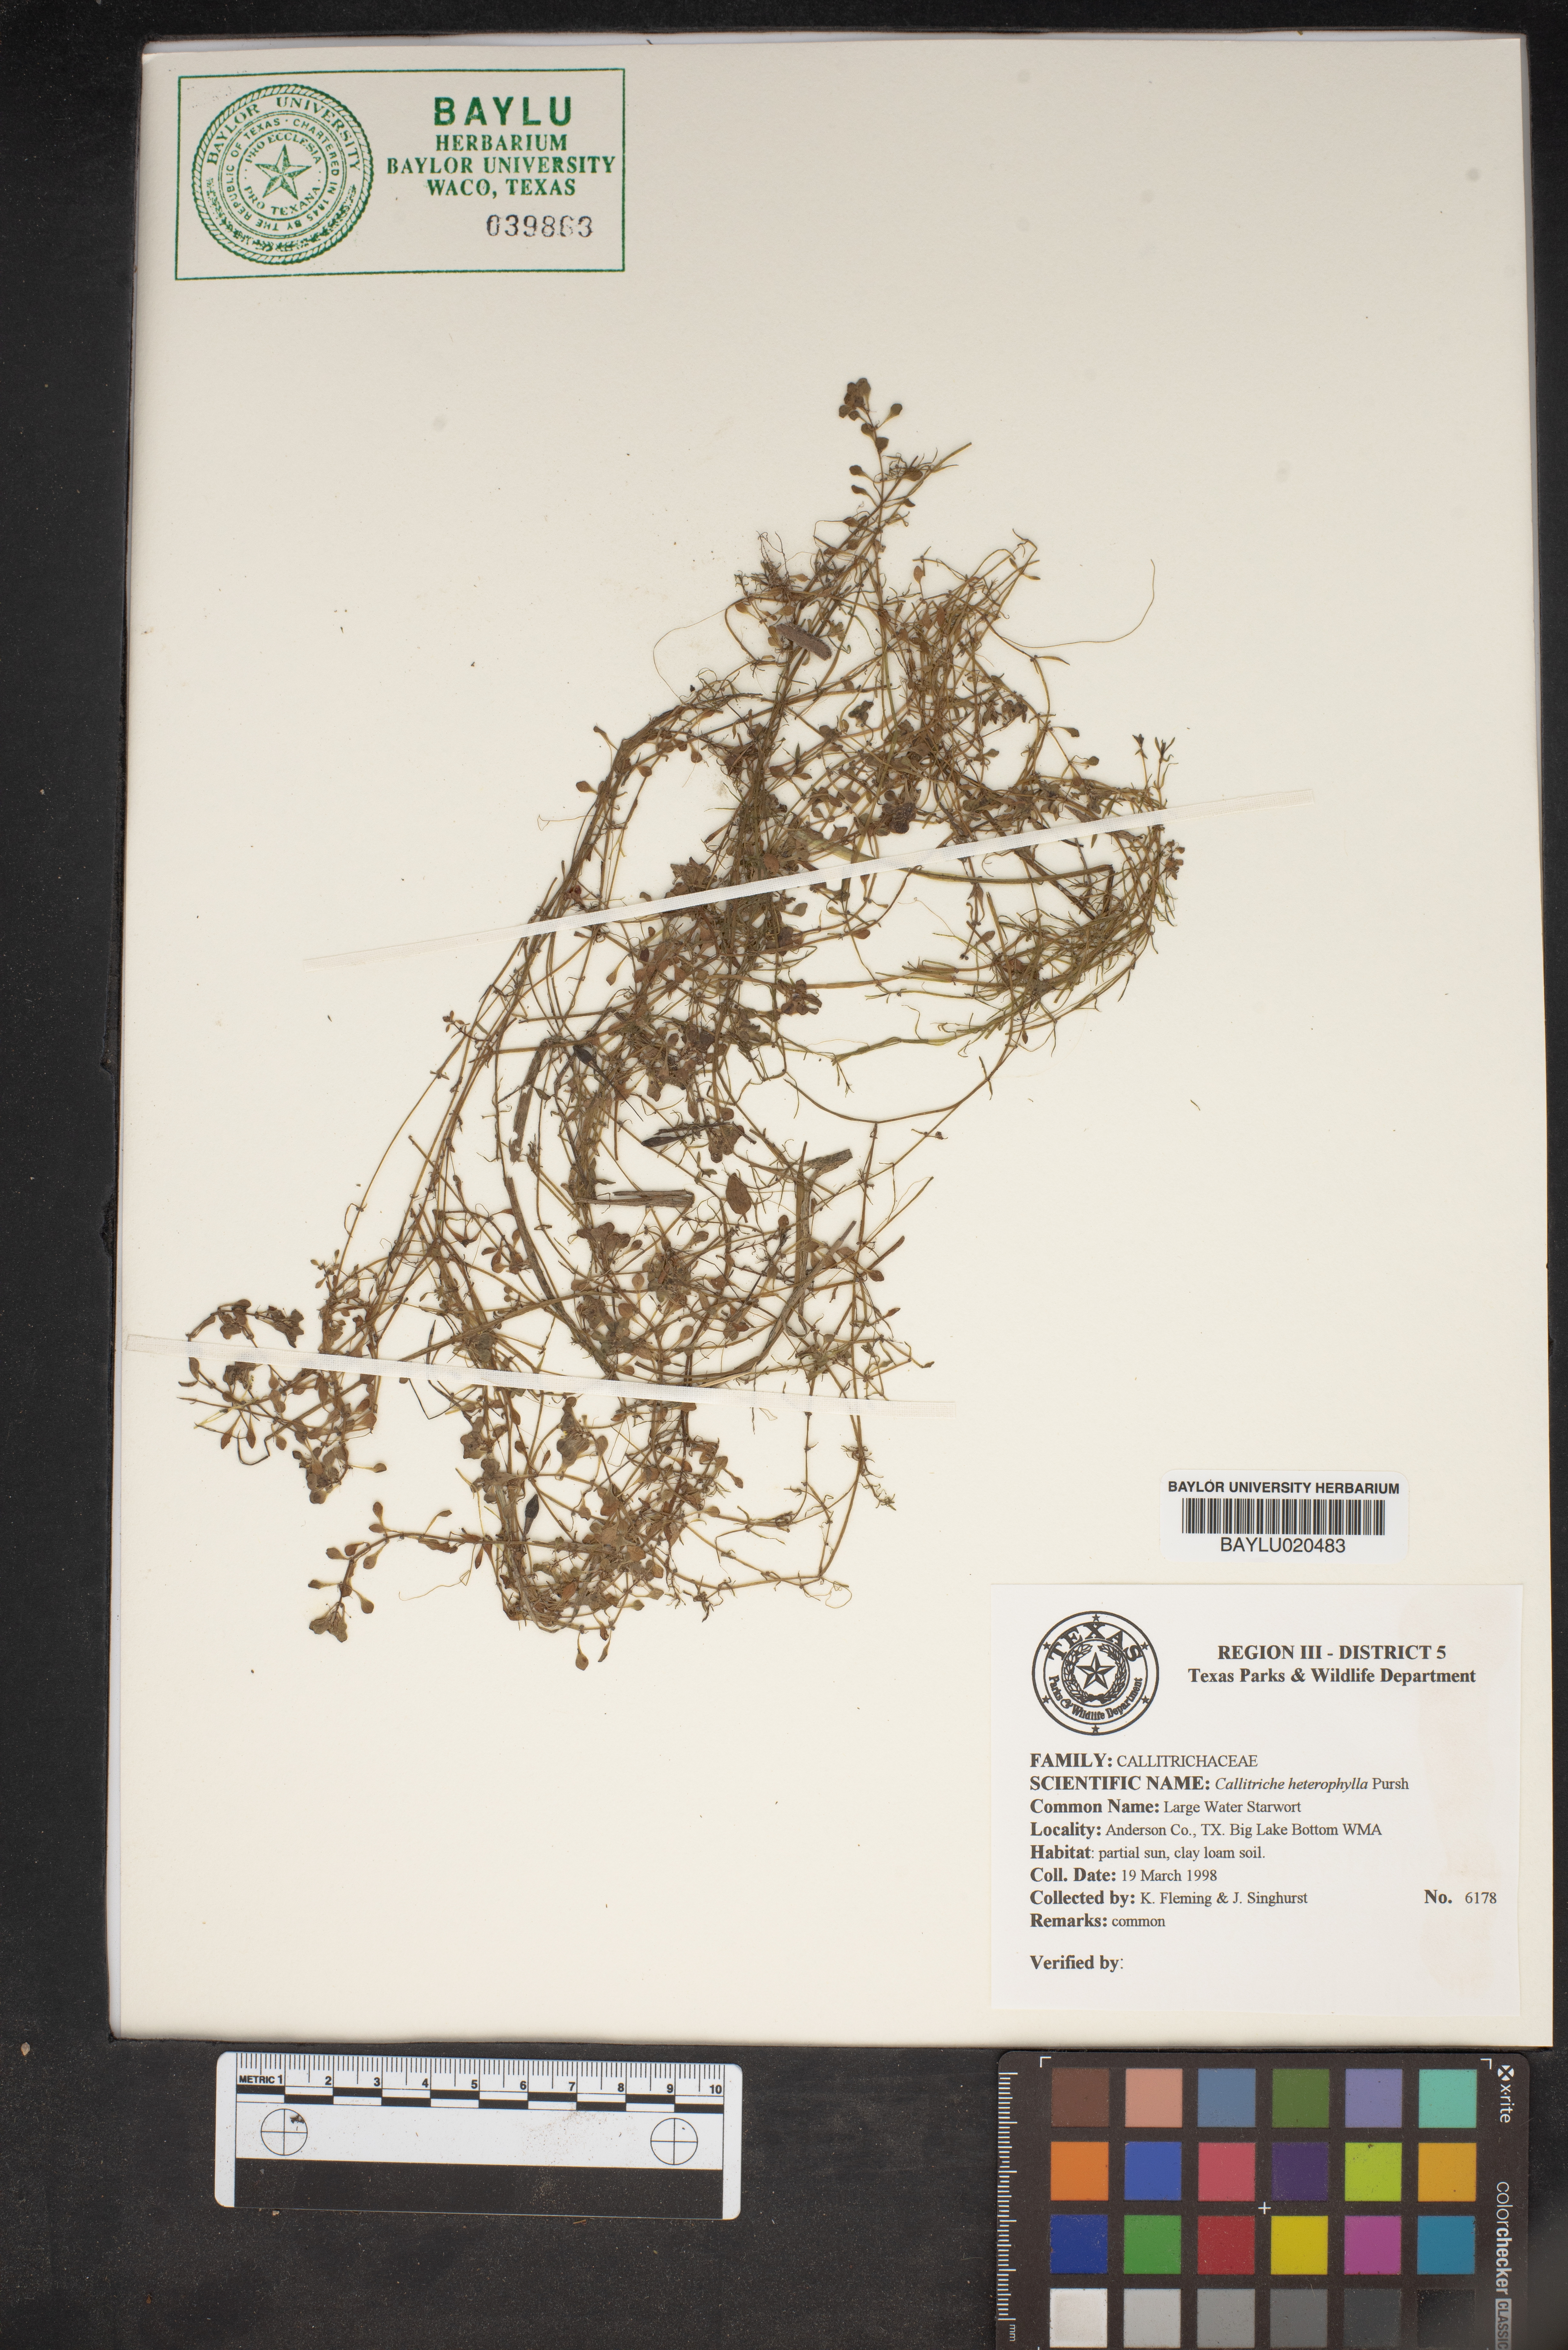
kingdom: Plantae
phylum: Tracheophyta
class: Magnoliopsida
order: Lamiales
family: Plantaginaceae
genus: Callitriche
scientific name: Callitriche heterophylla
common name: Two-headed water-starwort
